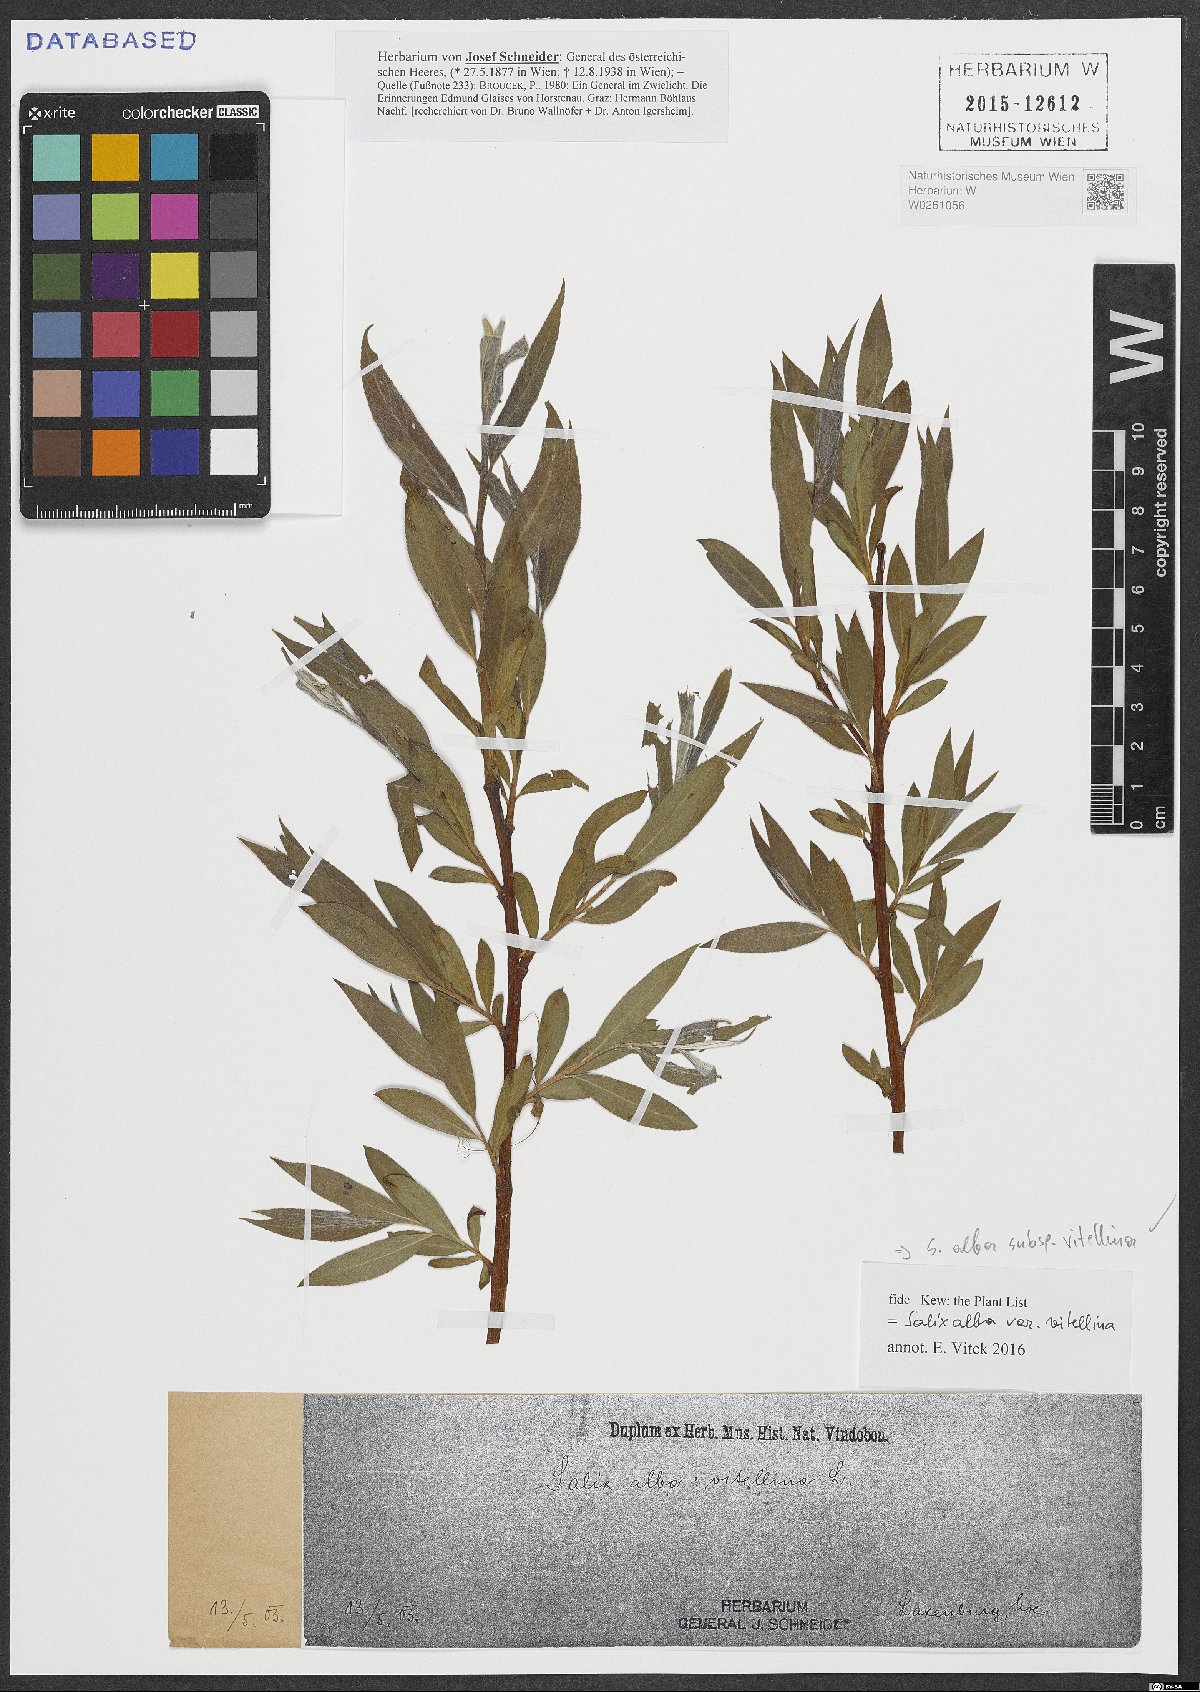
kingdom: Plantae
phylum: Tracheophyta
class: Magnoliopsida
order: Malpighiales
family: Salicaceae
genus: Salix
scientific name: Salix alba
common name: White willow
